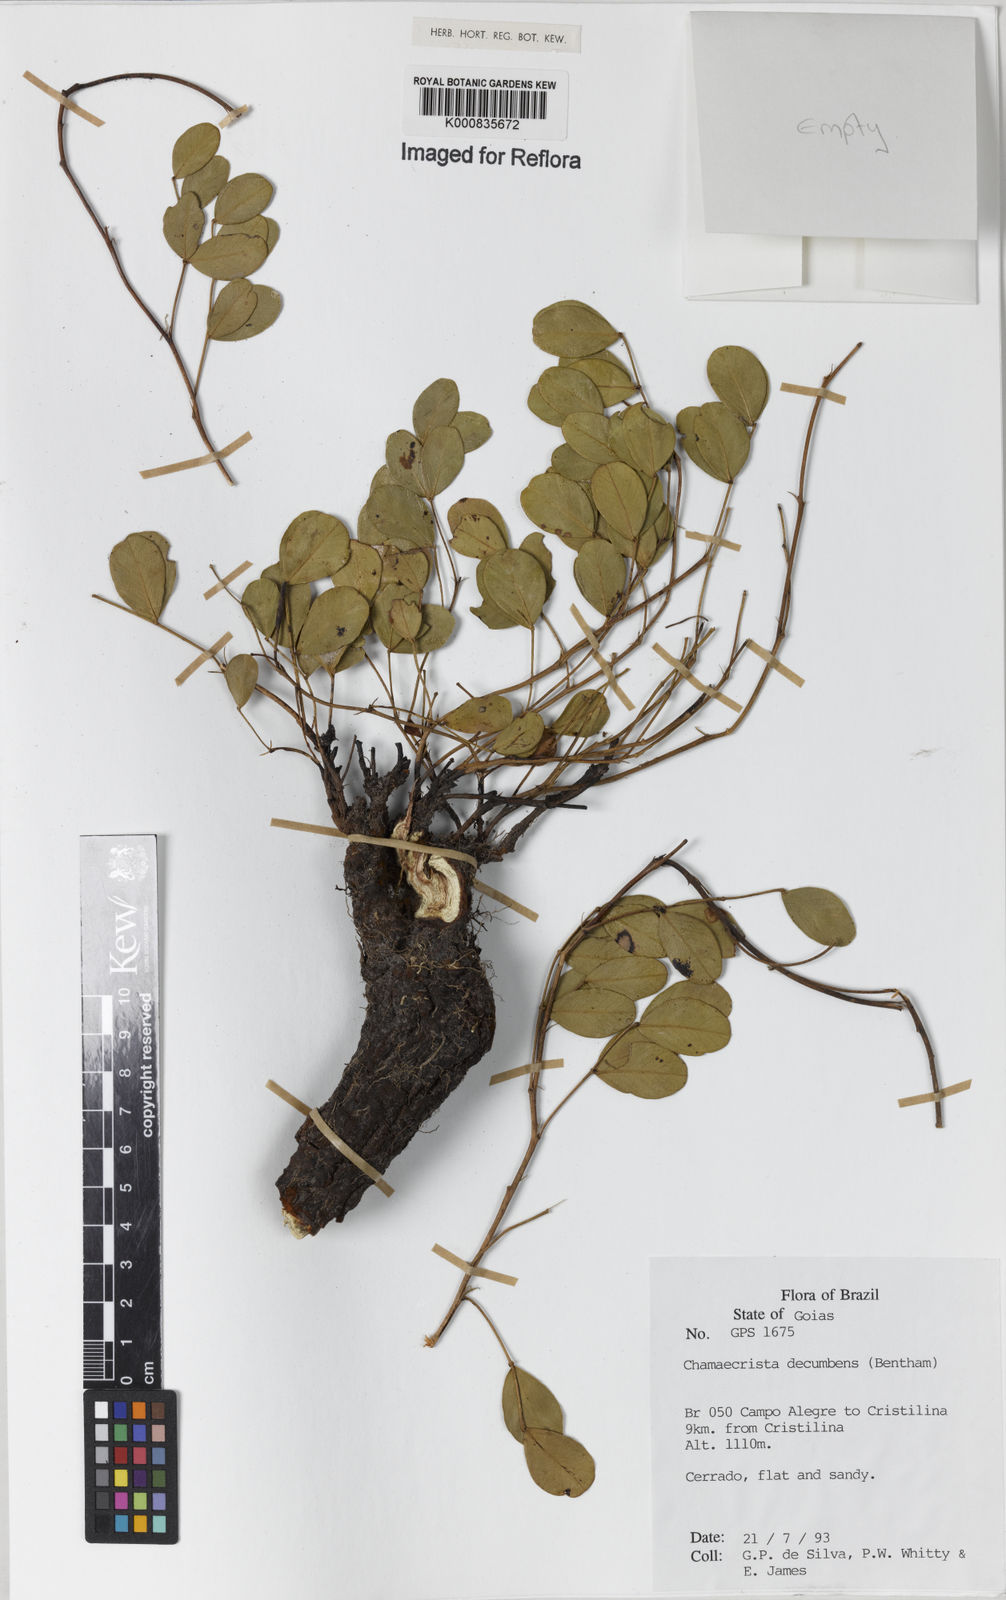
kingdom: Plantae
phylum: Tracheophyta
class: Magnoliopsida
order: Fabales
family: Fabaceae
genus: Chamaecrista
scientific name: Chamaecrista decumbens
